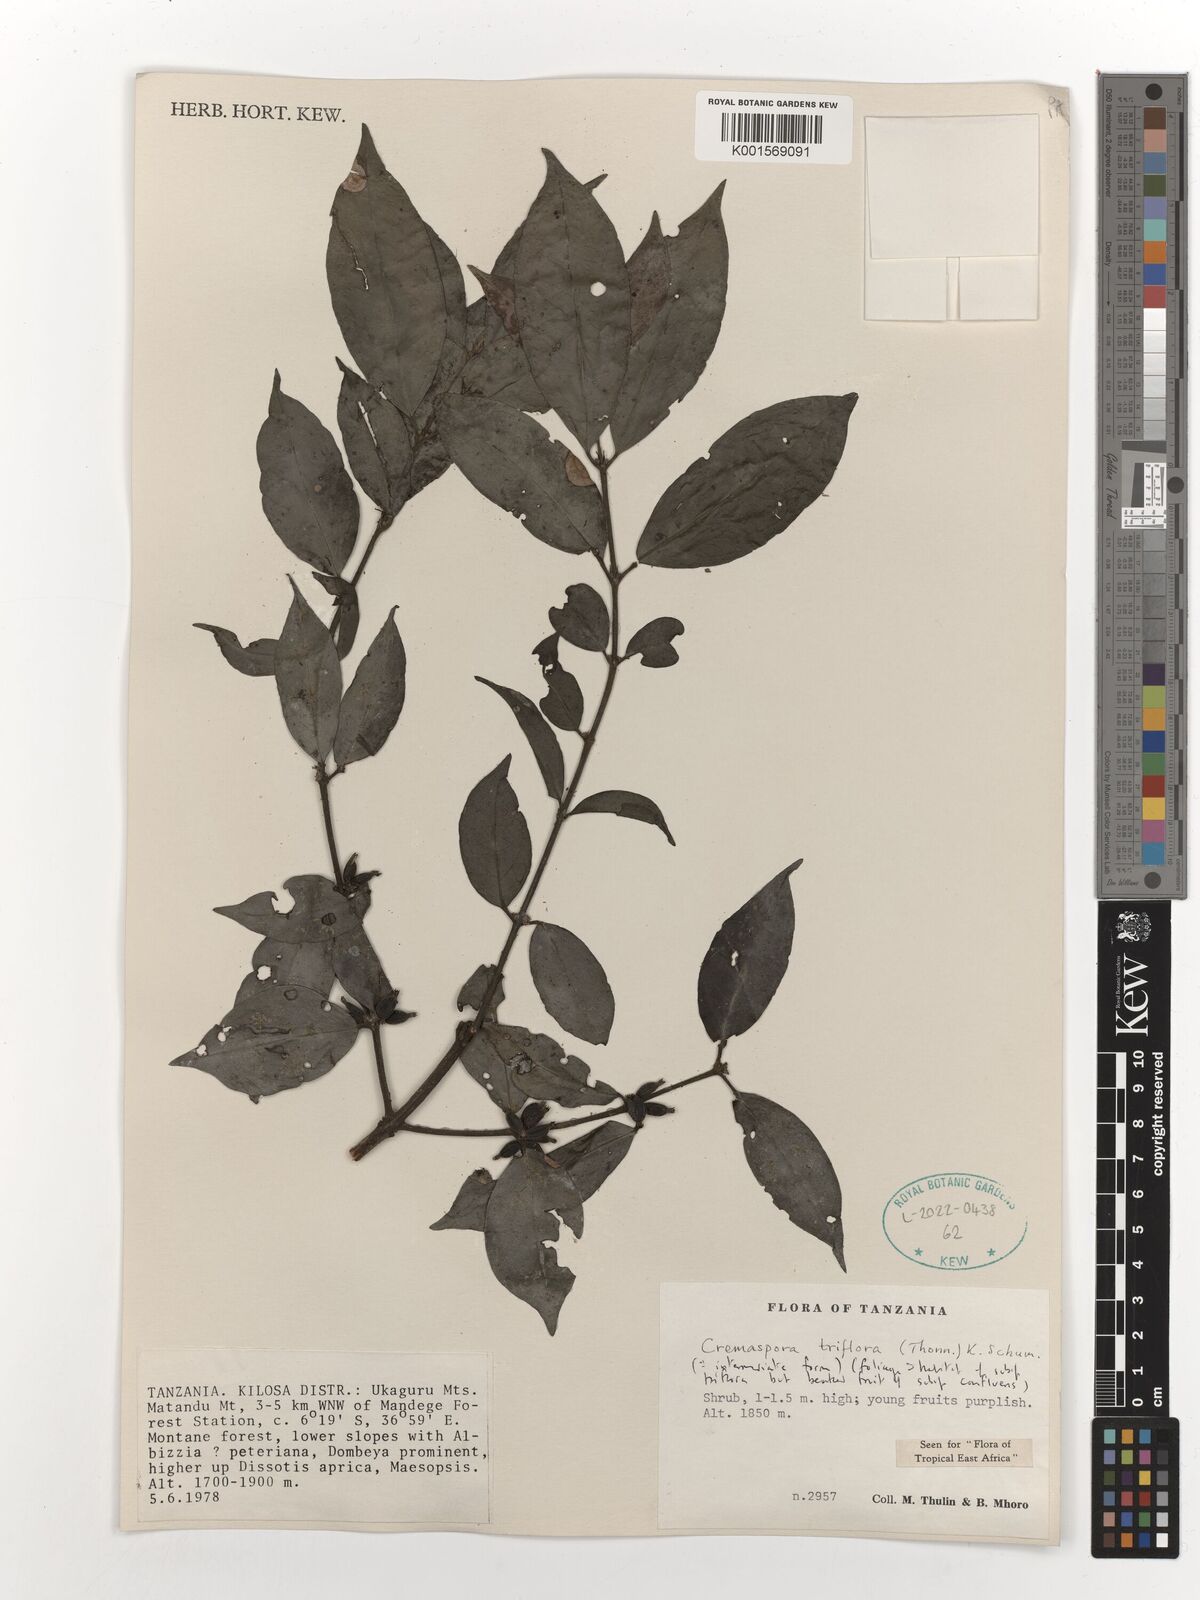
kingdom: Plantae
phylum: Tracheophyta
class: Magnoliopsida
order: Gentianales
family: Rubiaceae
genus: Cremaspora
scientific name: Cremaspora triflora
